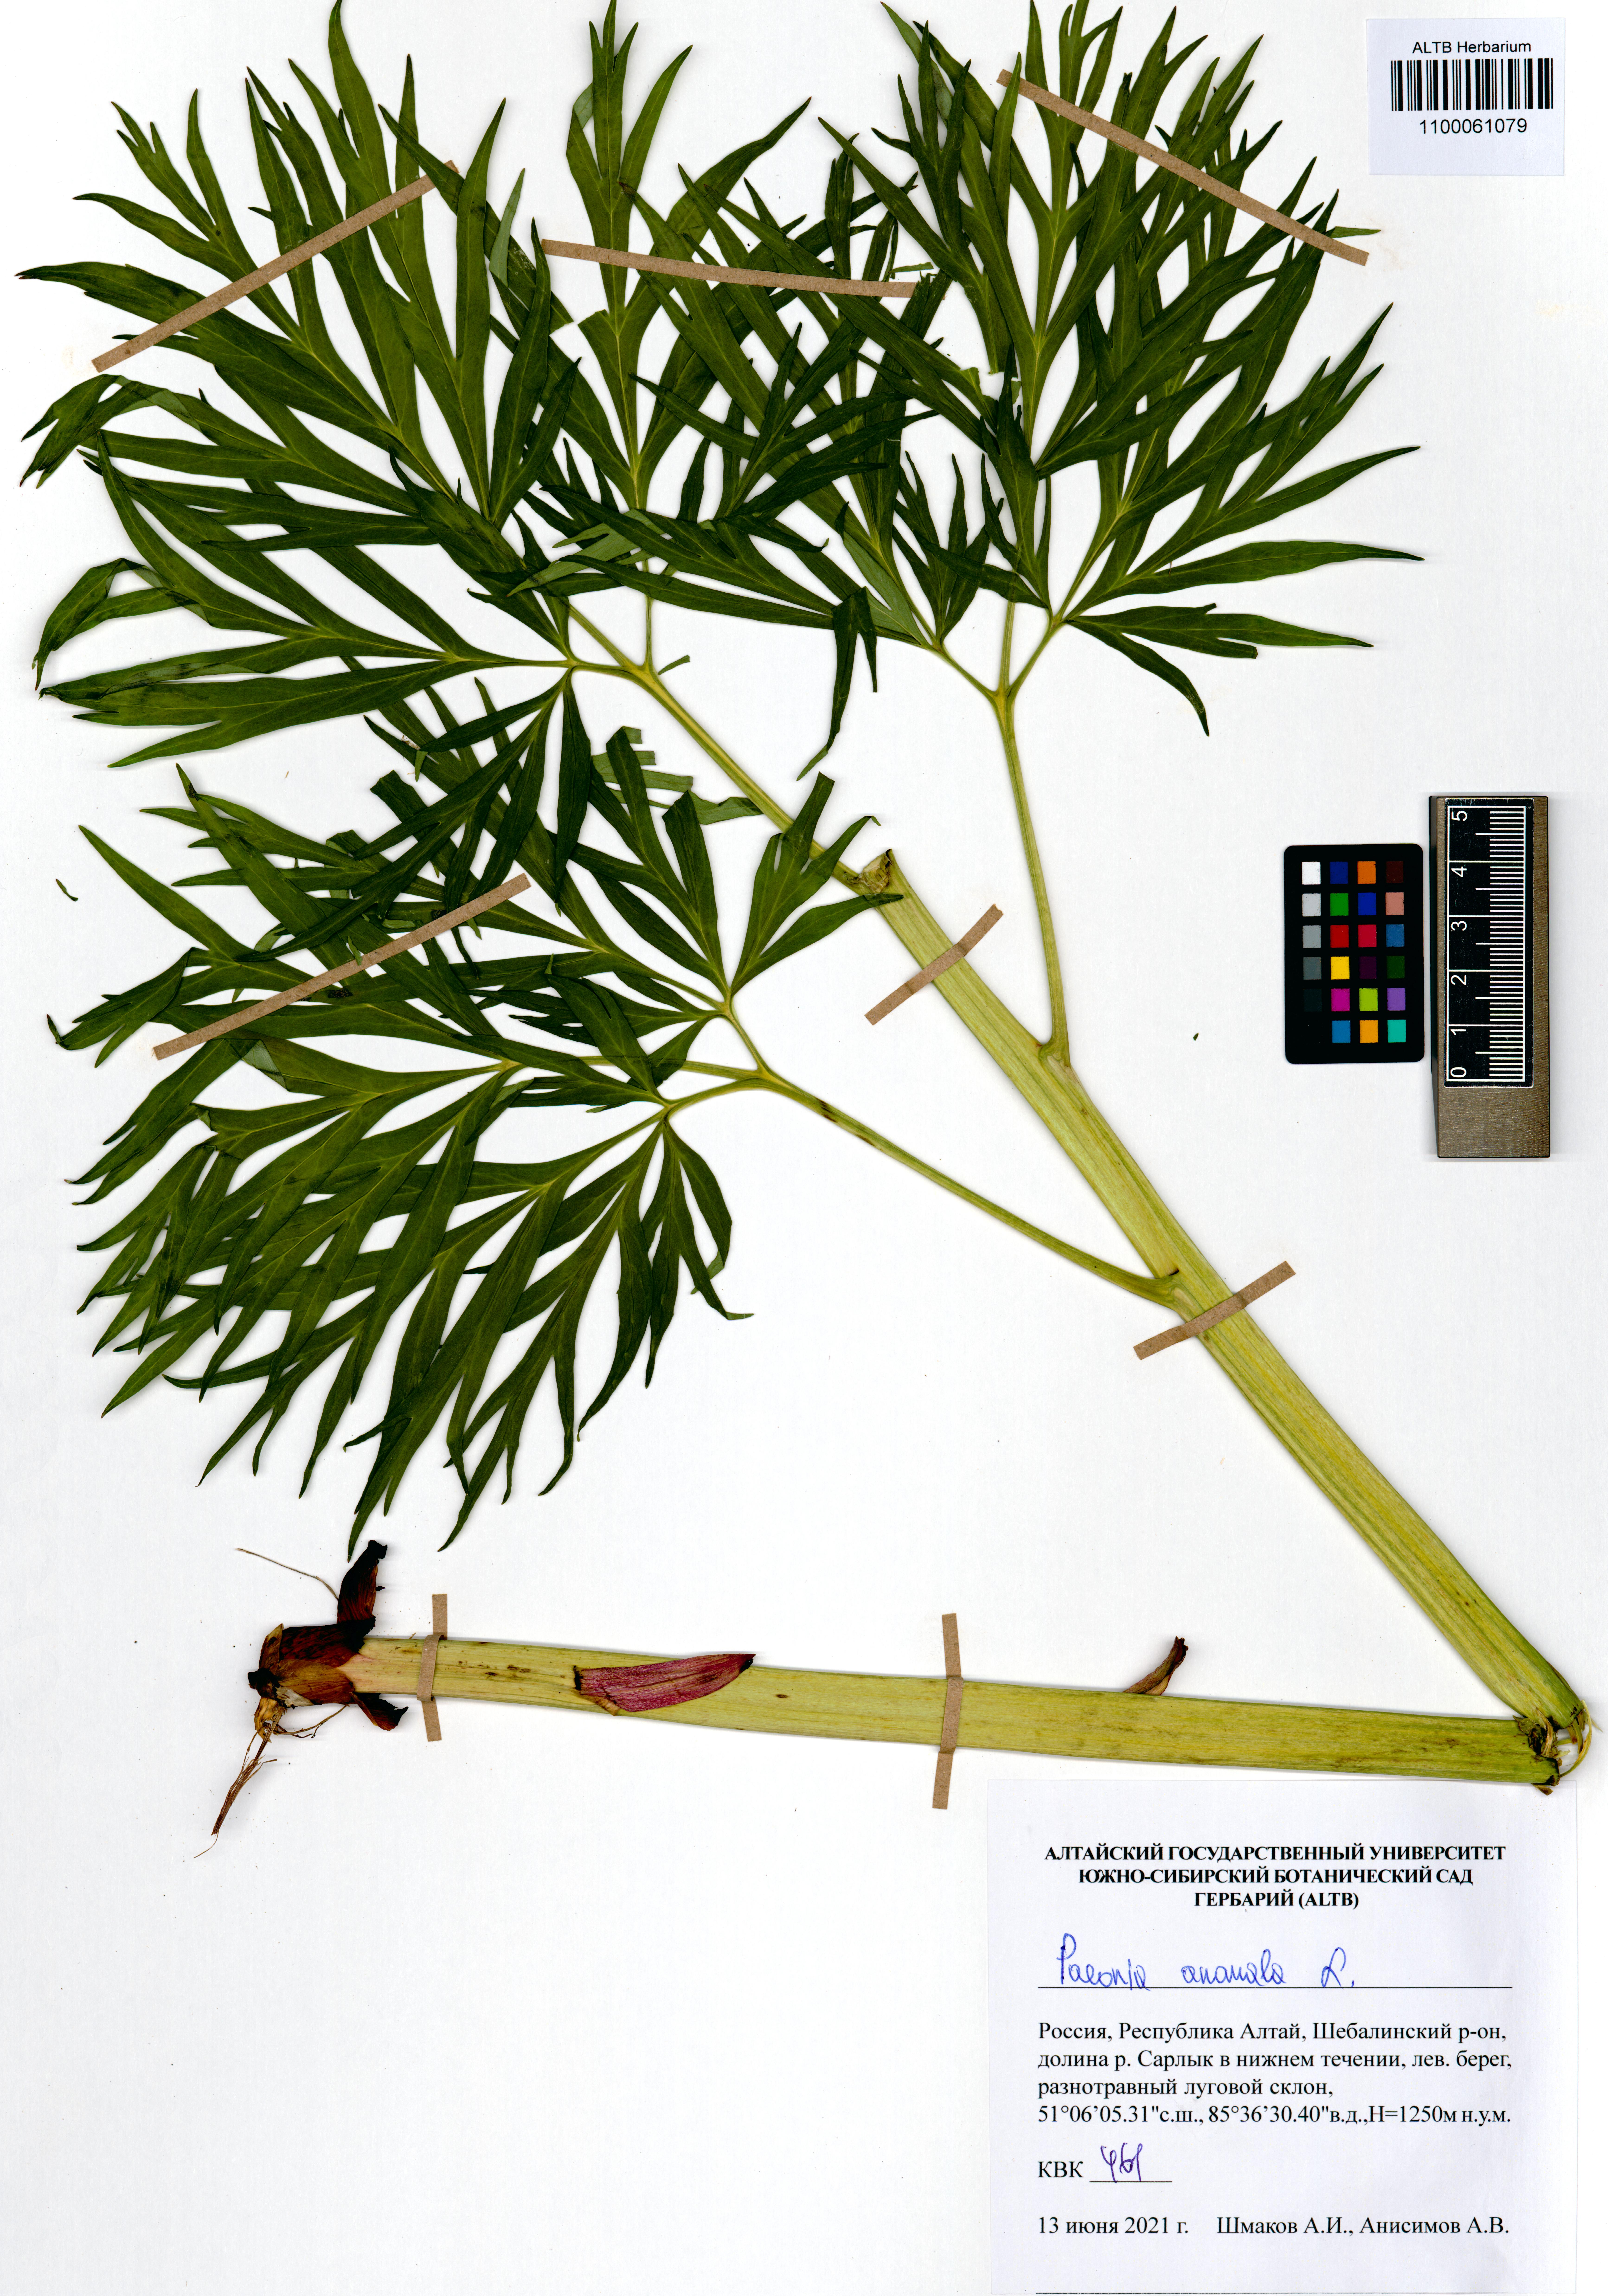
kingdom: Plantae
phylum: Tracheophyta
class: Magnoliopsida
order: Saxifragales
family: Paeoniaceae
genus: Paeonia
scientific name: Paeonia anomala
